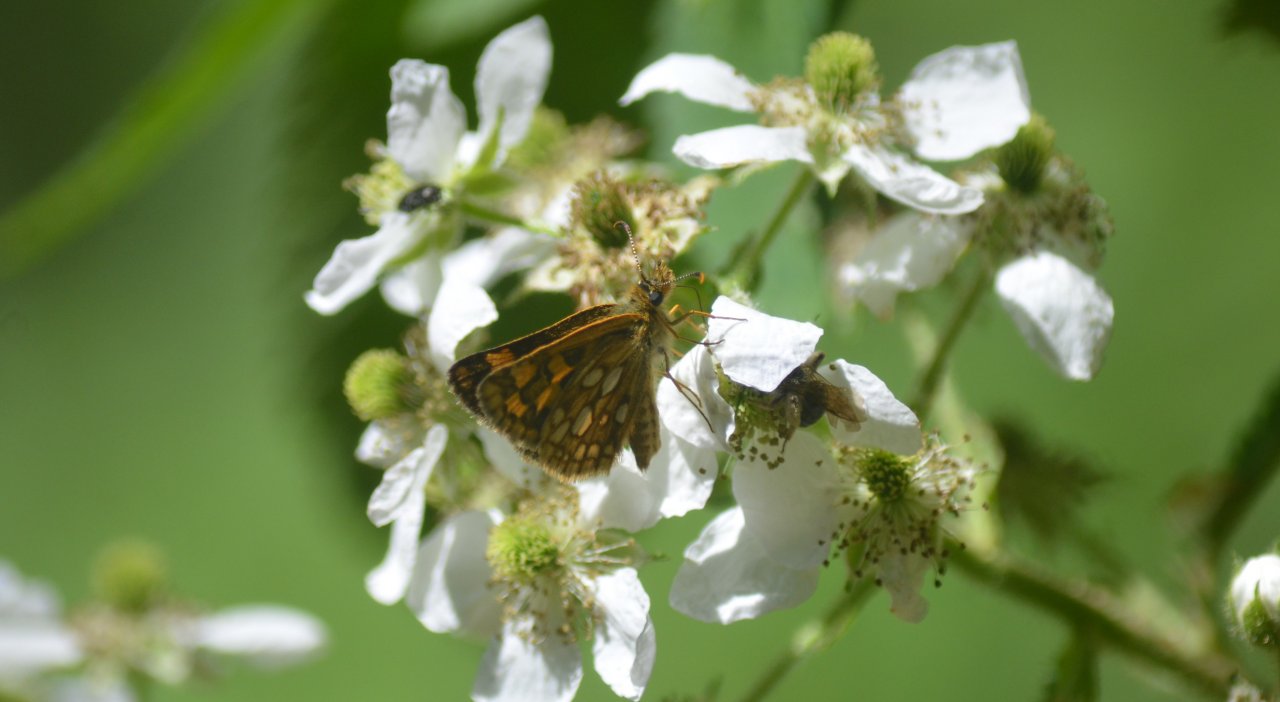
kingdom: Animalia
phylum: Arthropoda
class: Insecta
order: Lepidoptera
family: Hesperiidae
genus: Carterocephalus
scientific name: Carterocephalus palaemon
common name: Chequered Skipper
